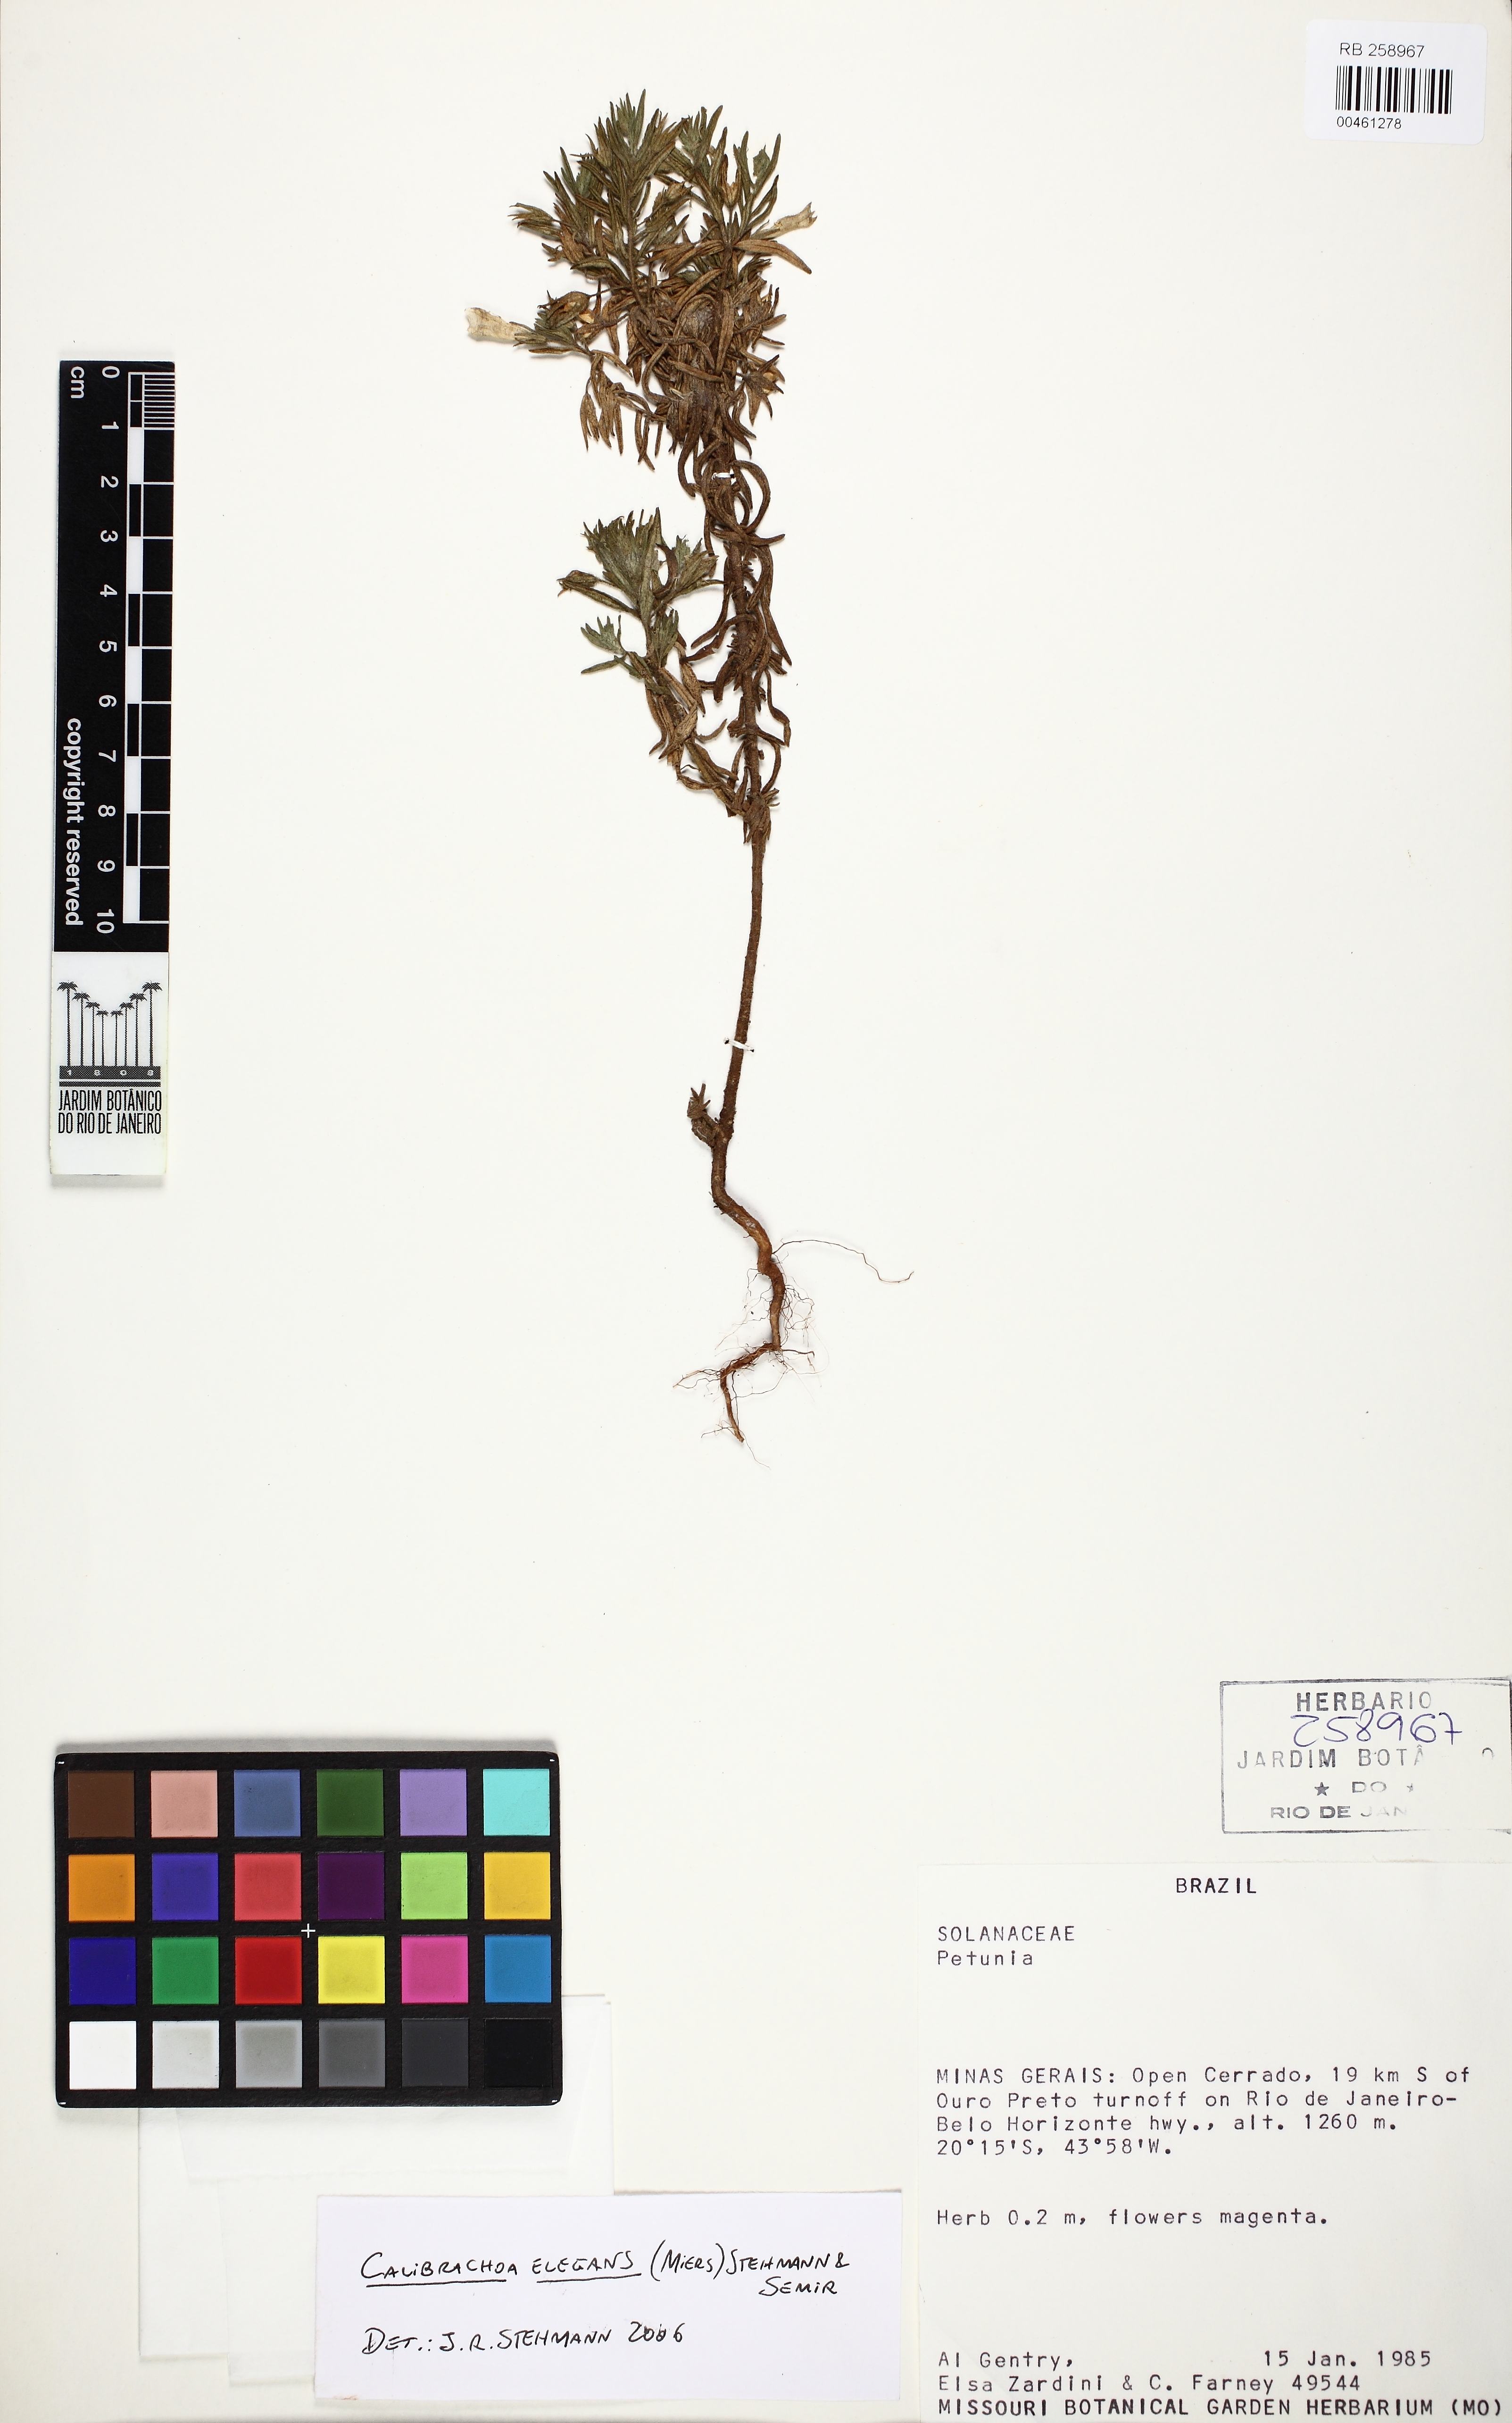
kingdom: Plantae
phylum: Tracheophyta
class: Magnoliopsida
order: Solanales
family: Solanaceae
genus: Calibrachoa
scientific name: Calibrachoa elegans
